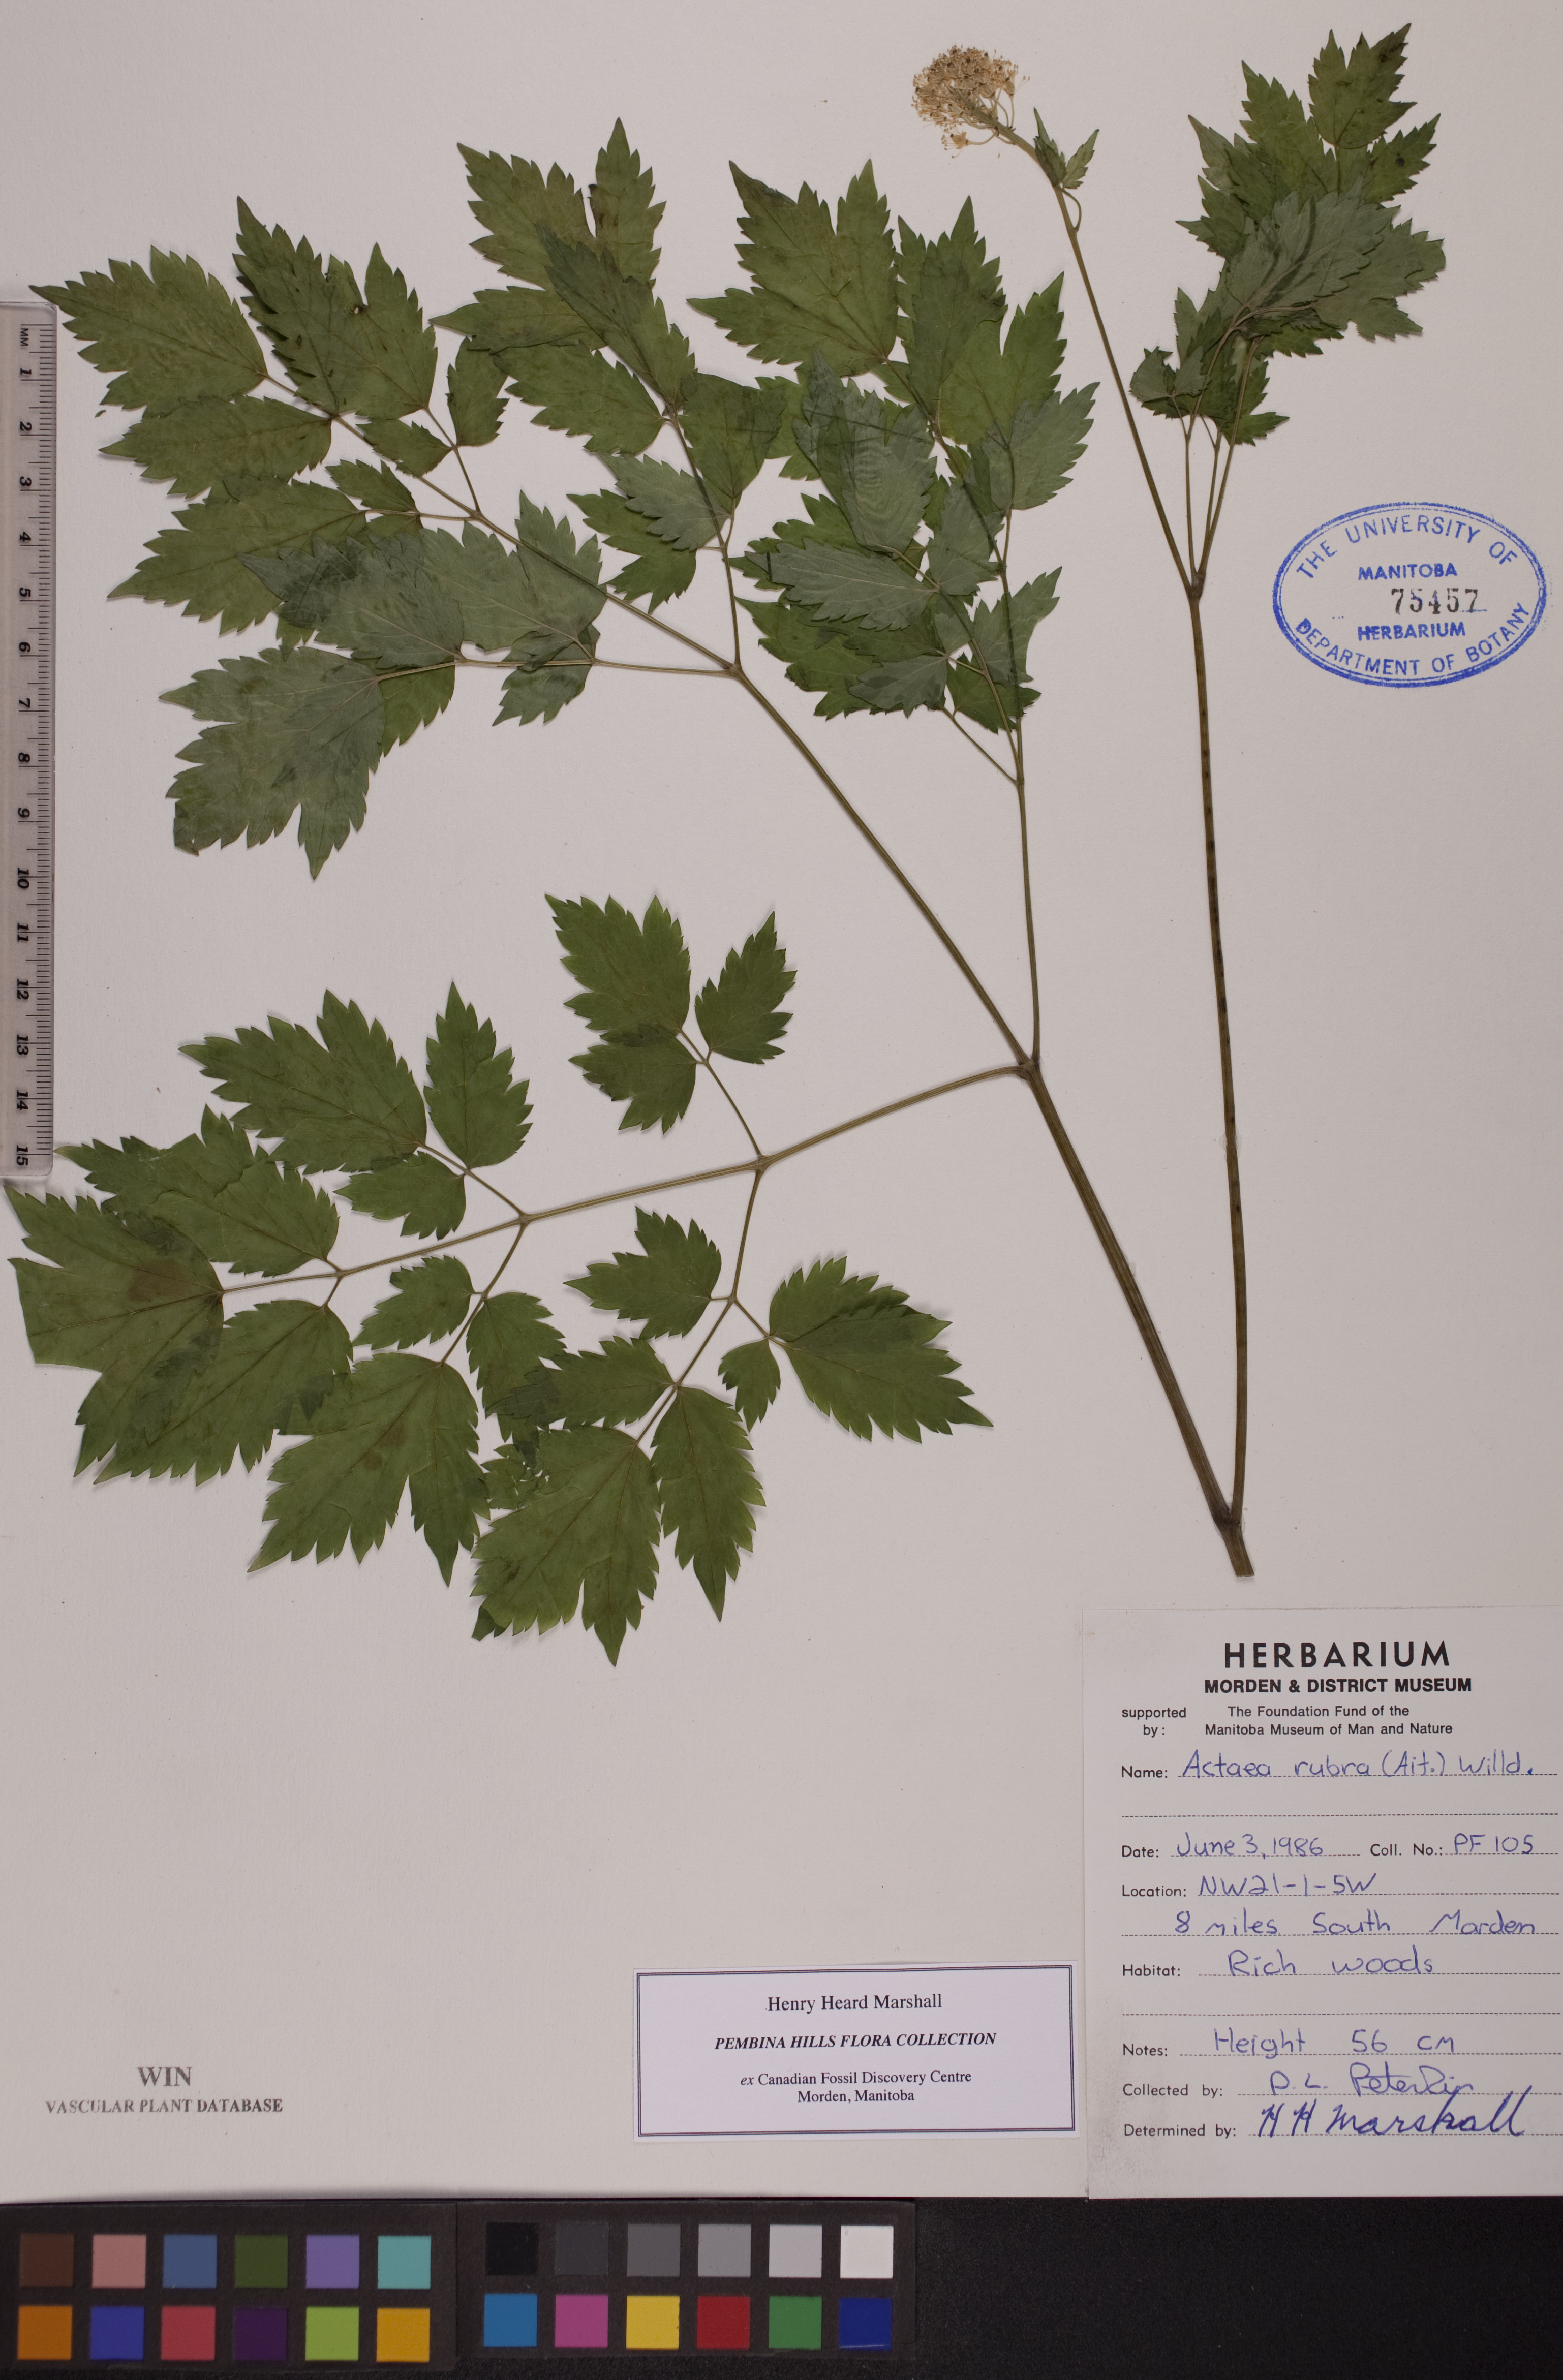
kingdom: Plantae
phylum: Tracheophyta
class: Magnoliopsida
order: Ranunculales
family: Ranunculaceae
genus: Actaea
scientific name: Actaea rubra
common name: Red baneberry
